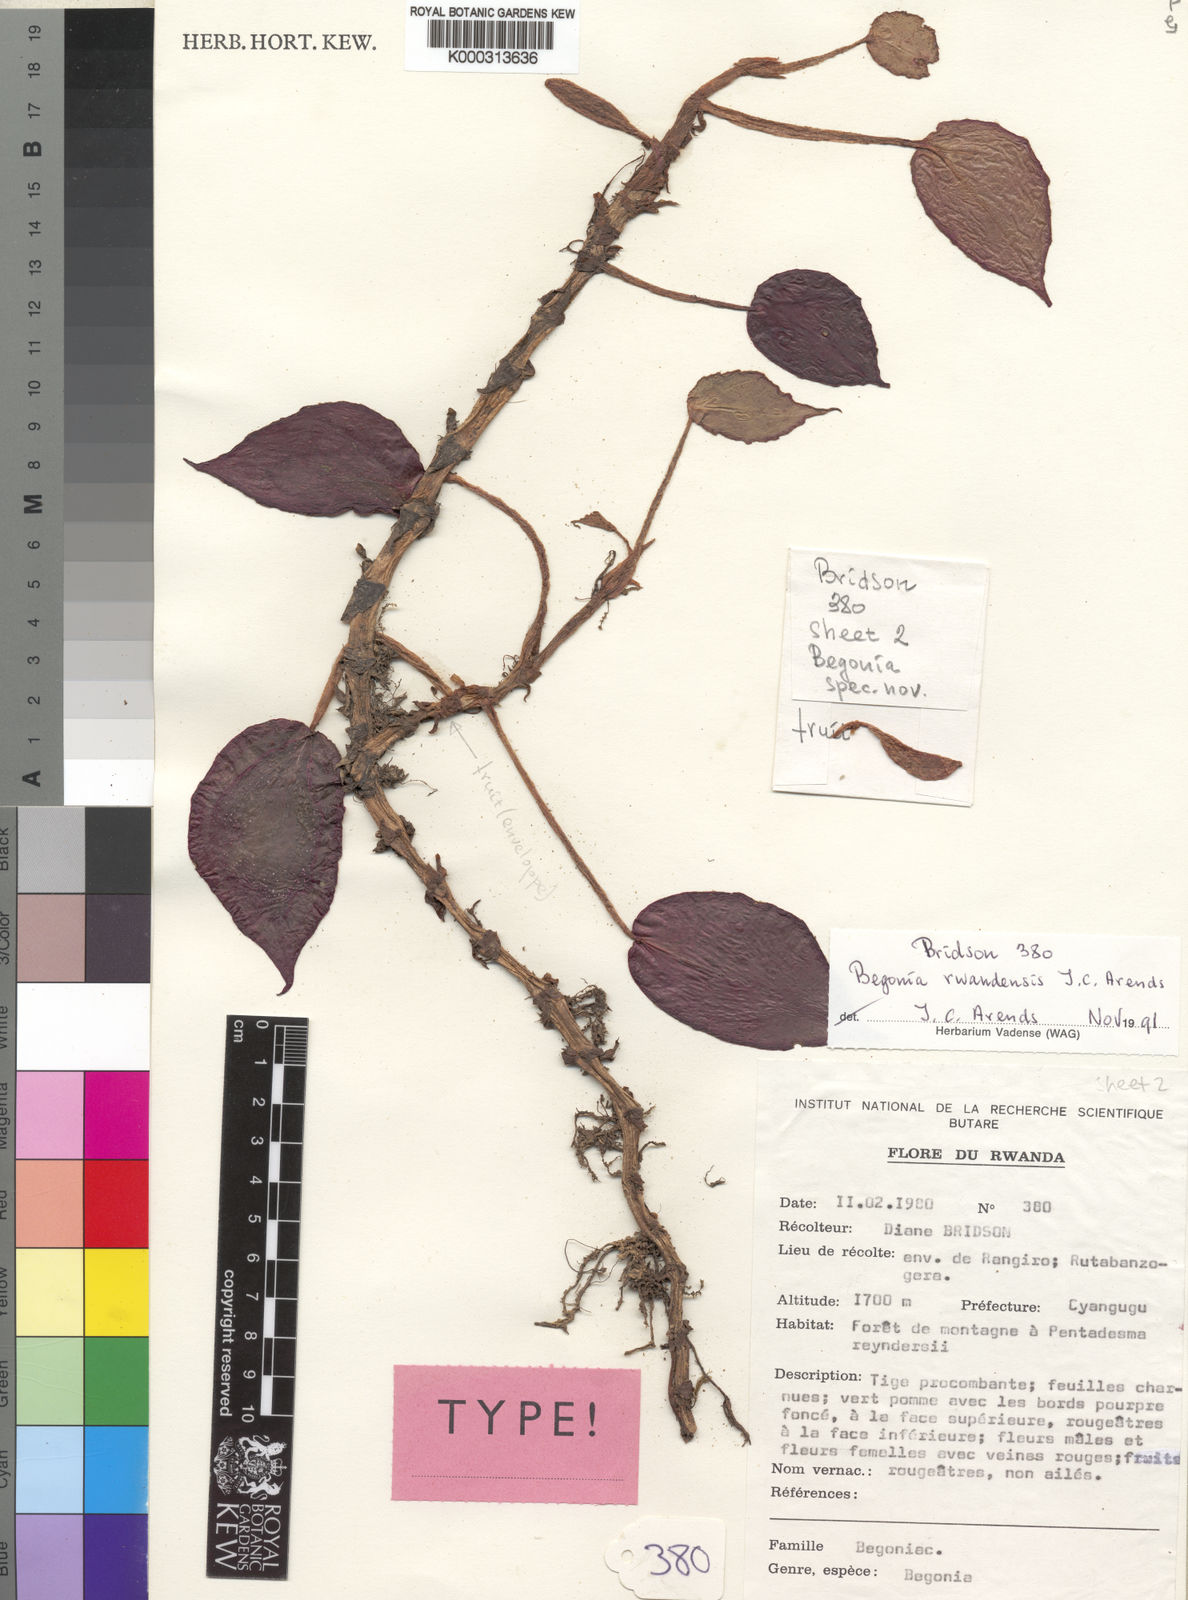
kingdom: Plantae
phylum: Tracheophyta
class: Magnoliopsida
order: Cucurbitales
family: Begoniaceae
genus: Begonia
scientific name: Begonia rwandensis
